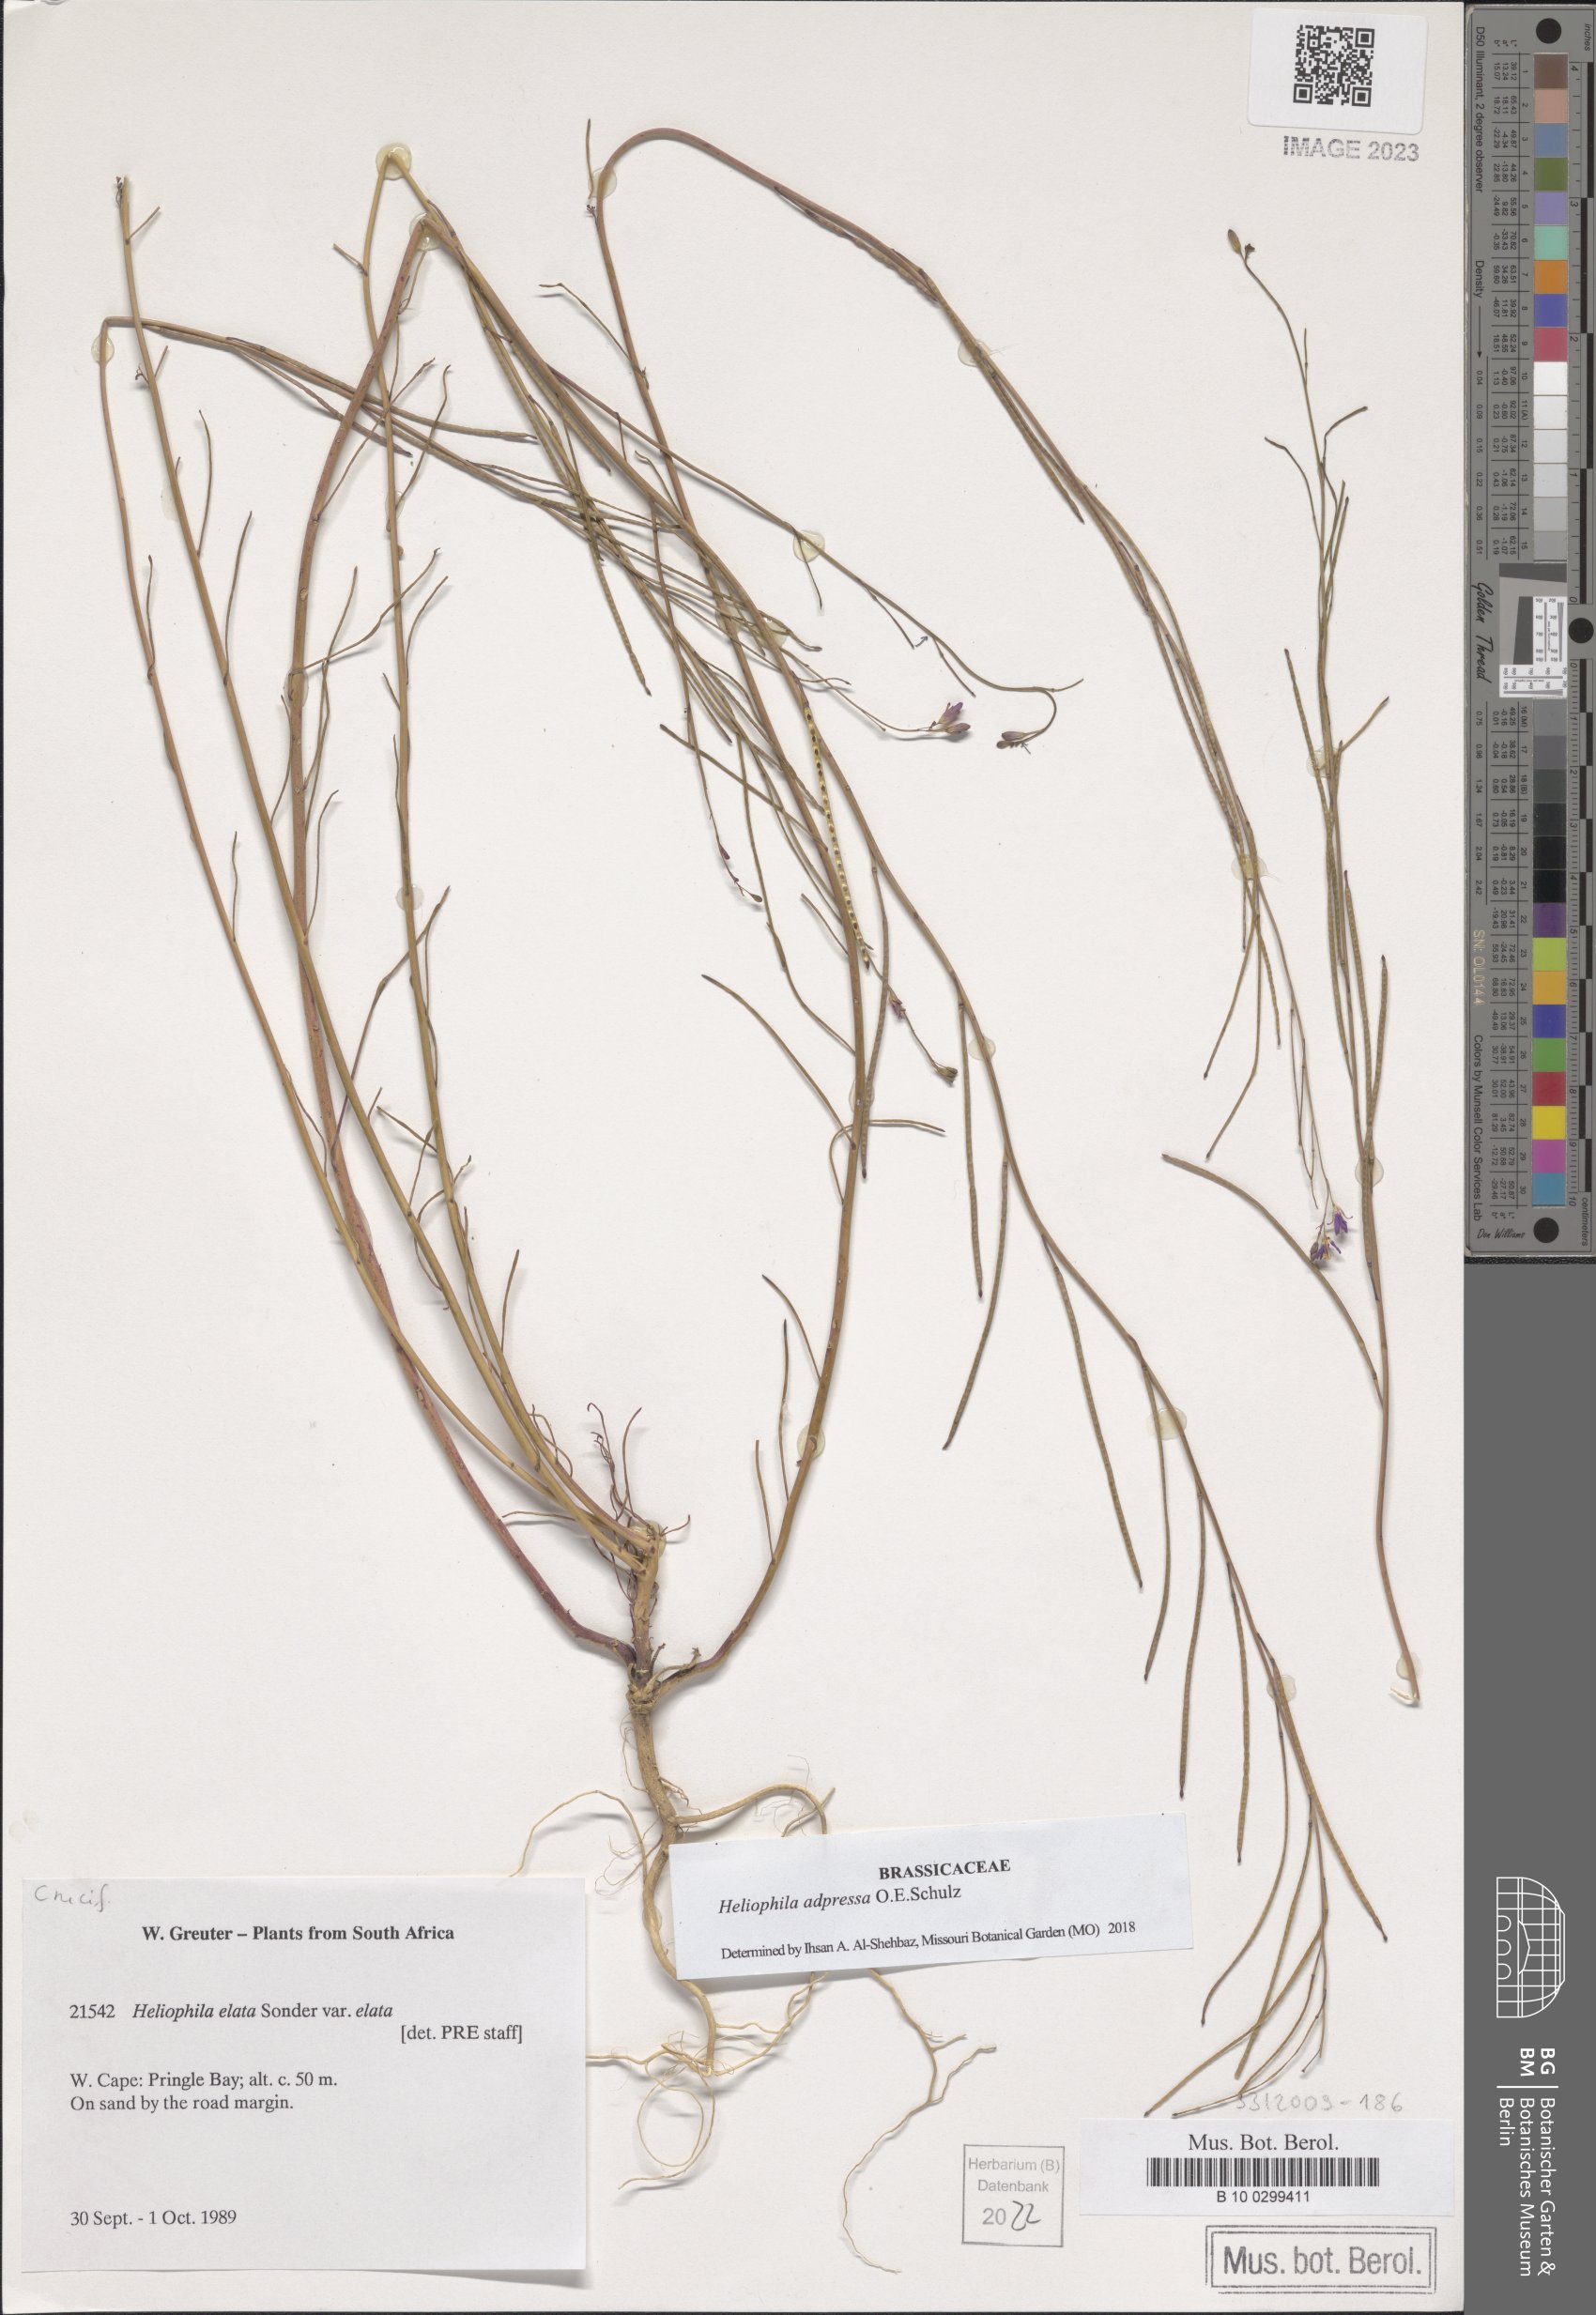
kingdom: Plantae
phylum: Tracheophyta
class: Magnoliopsida
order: Brassicales
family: Brassicaceae
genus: Heliophila
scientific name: Heliophila adpressa
